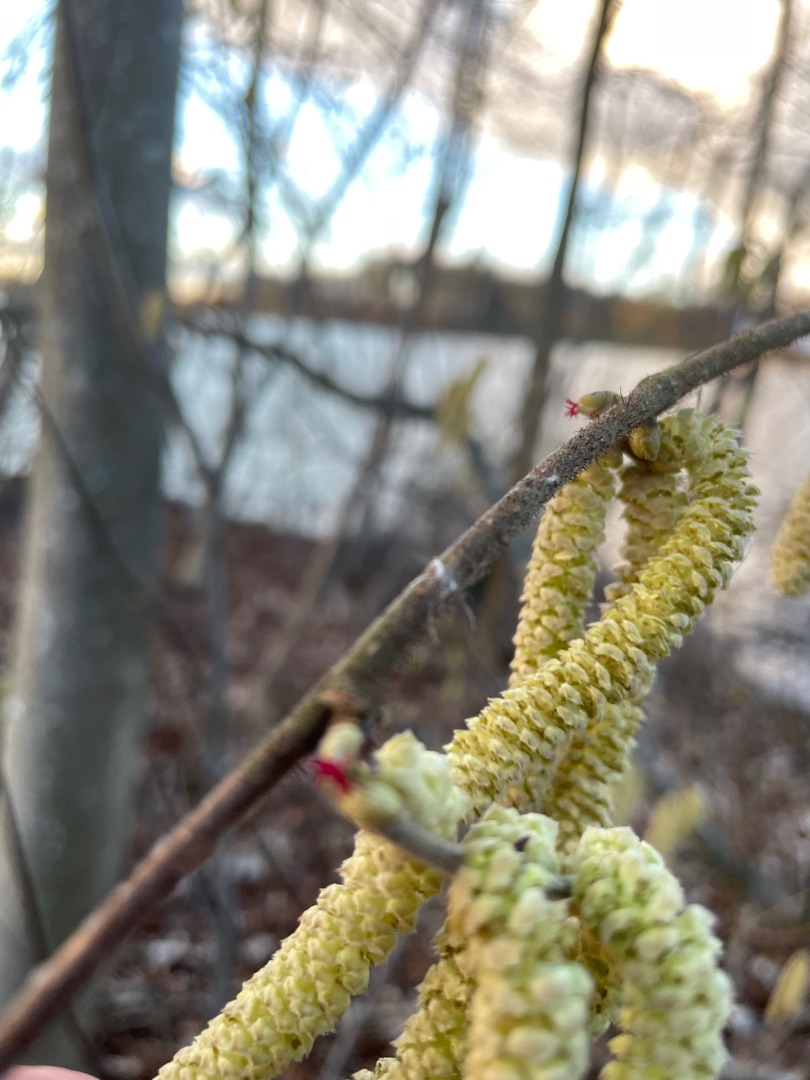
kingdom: Plantae
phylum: Tracheophyta
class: Magnoliopsida
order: Fagales
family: Betulaceae
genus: Corylus
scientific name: Corylus avellana
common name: Hassel
